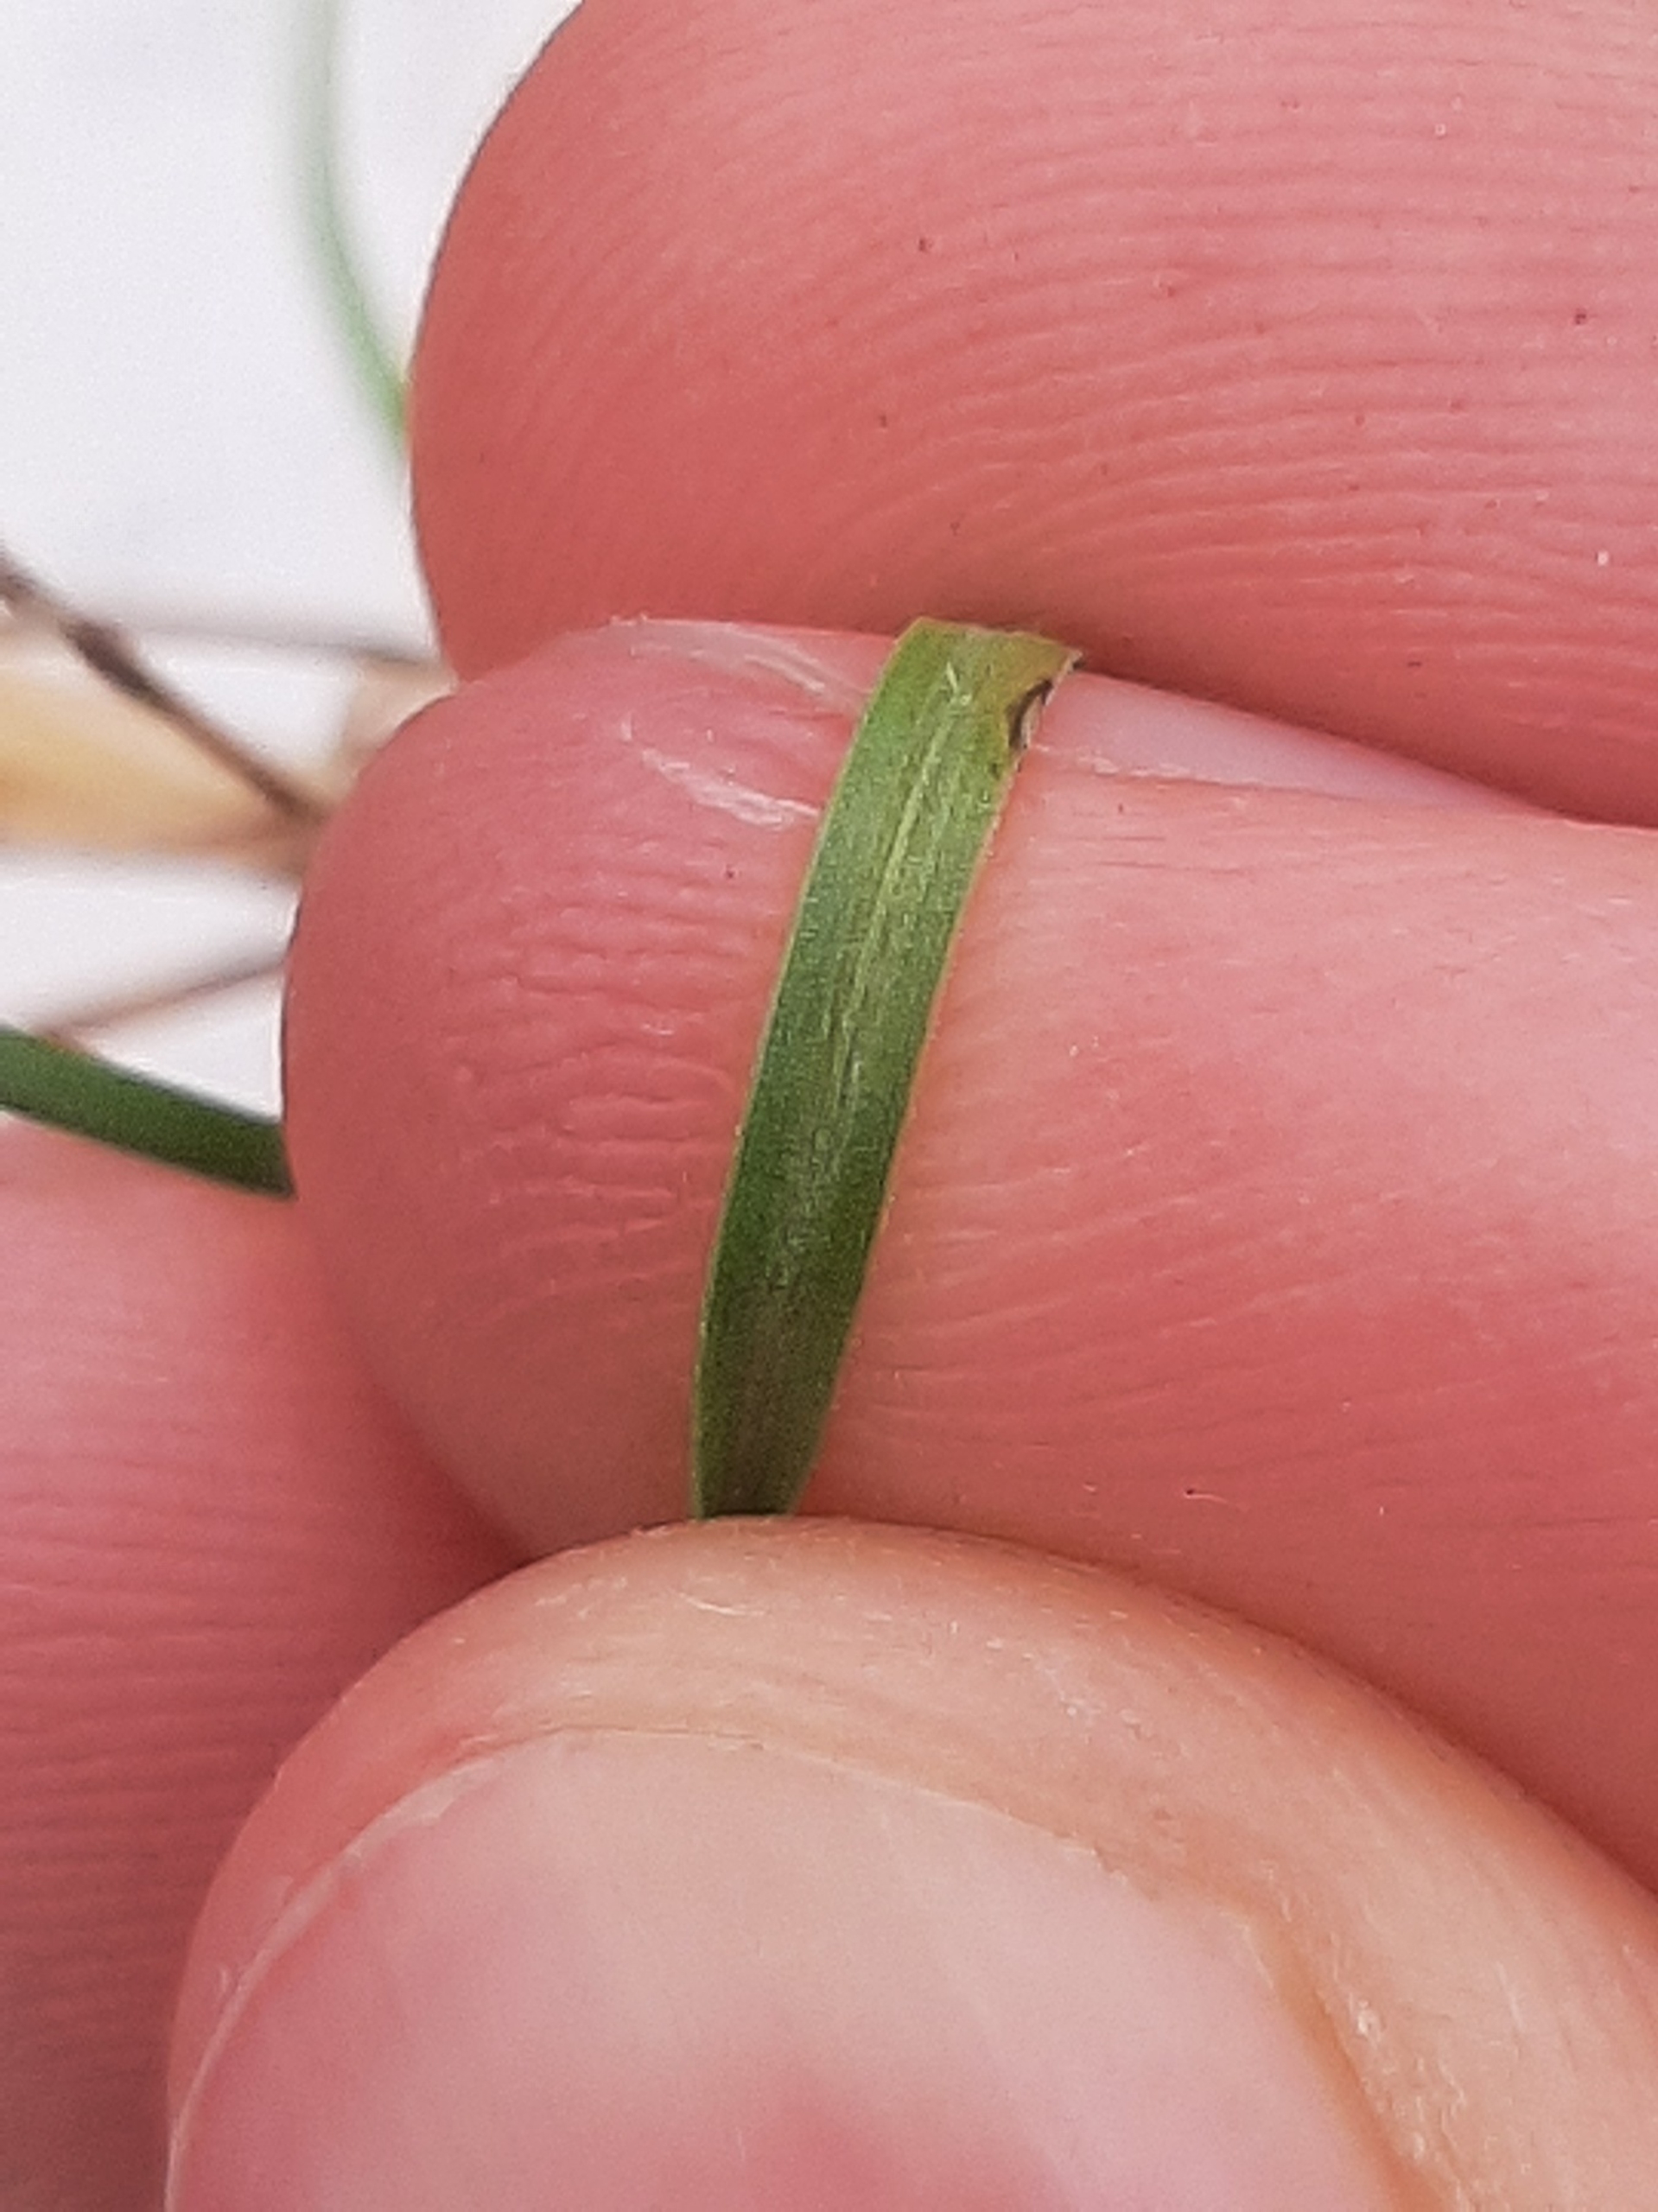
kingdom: Plantae
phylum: Tracheophyta
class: Liliopsida
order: Poales
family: Poaceae
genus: Helictochloa
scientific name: Helictochloa pratensis
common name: Eng-havre
